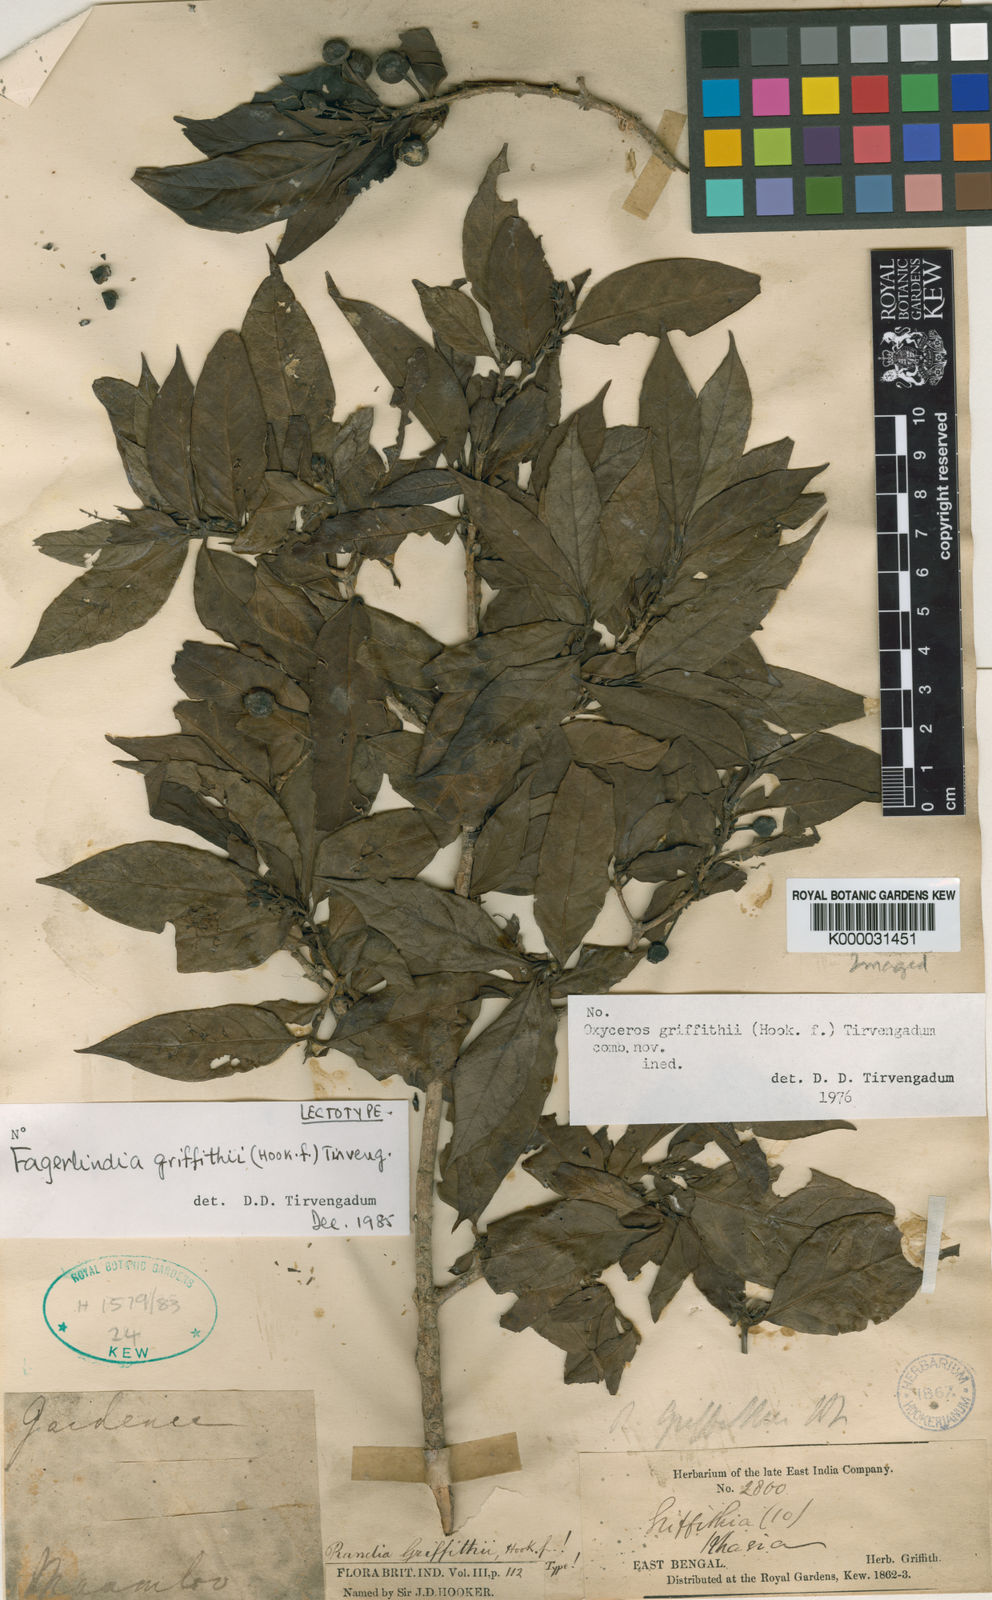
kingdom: Plantae
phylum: Tracheophyta
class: Magnoliopsida
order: Gentianales
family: Rubiaceae
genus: Benkara
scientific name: Benkara griffithii
